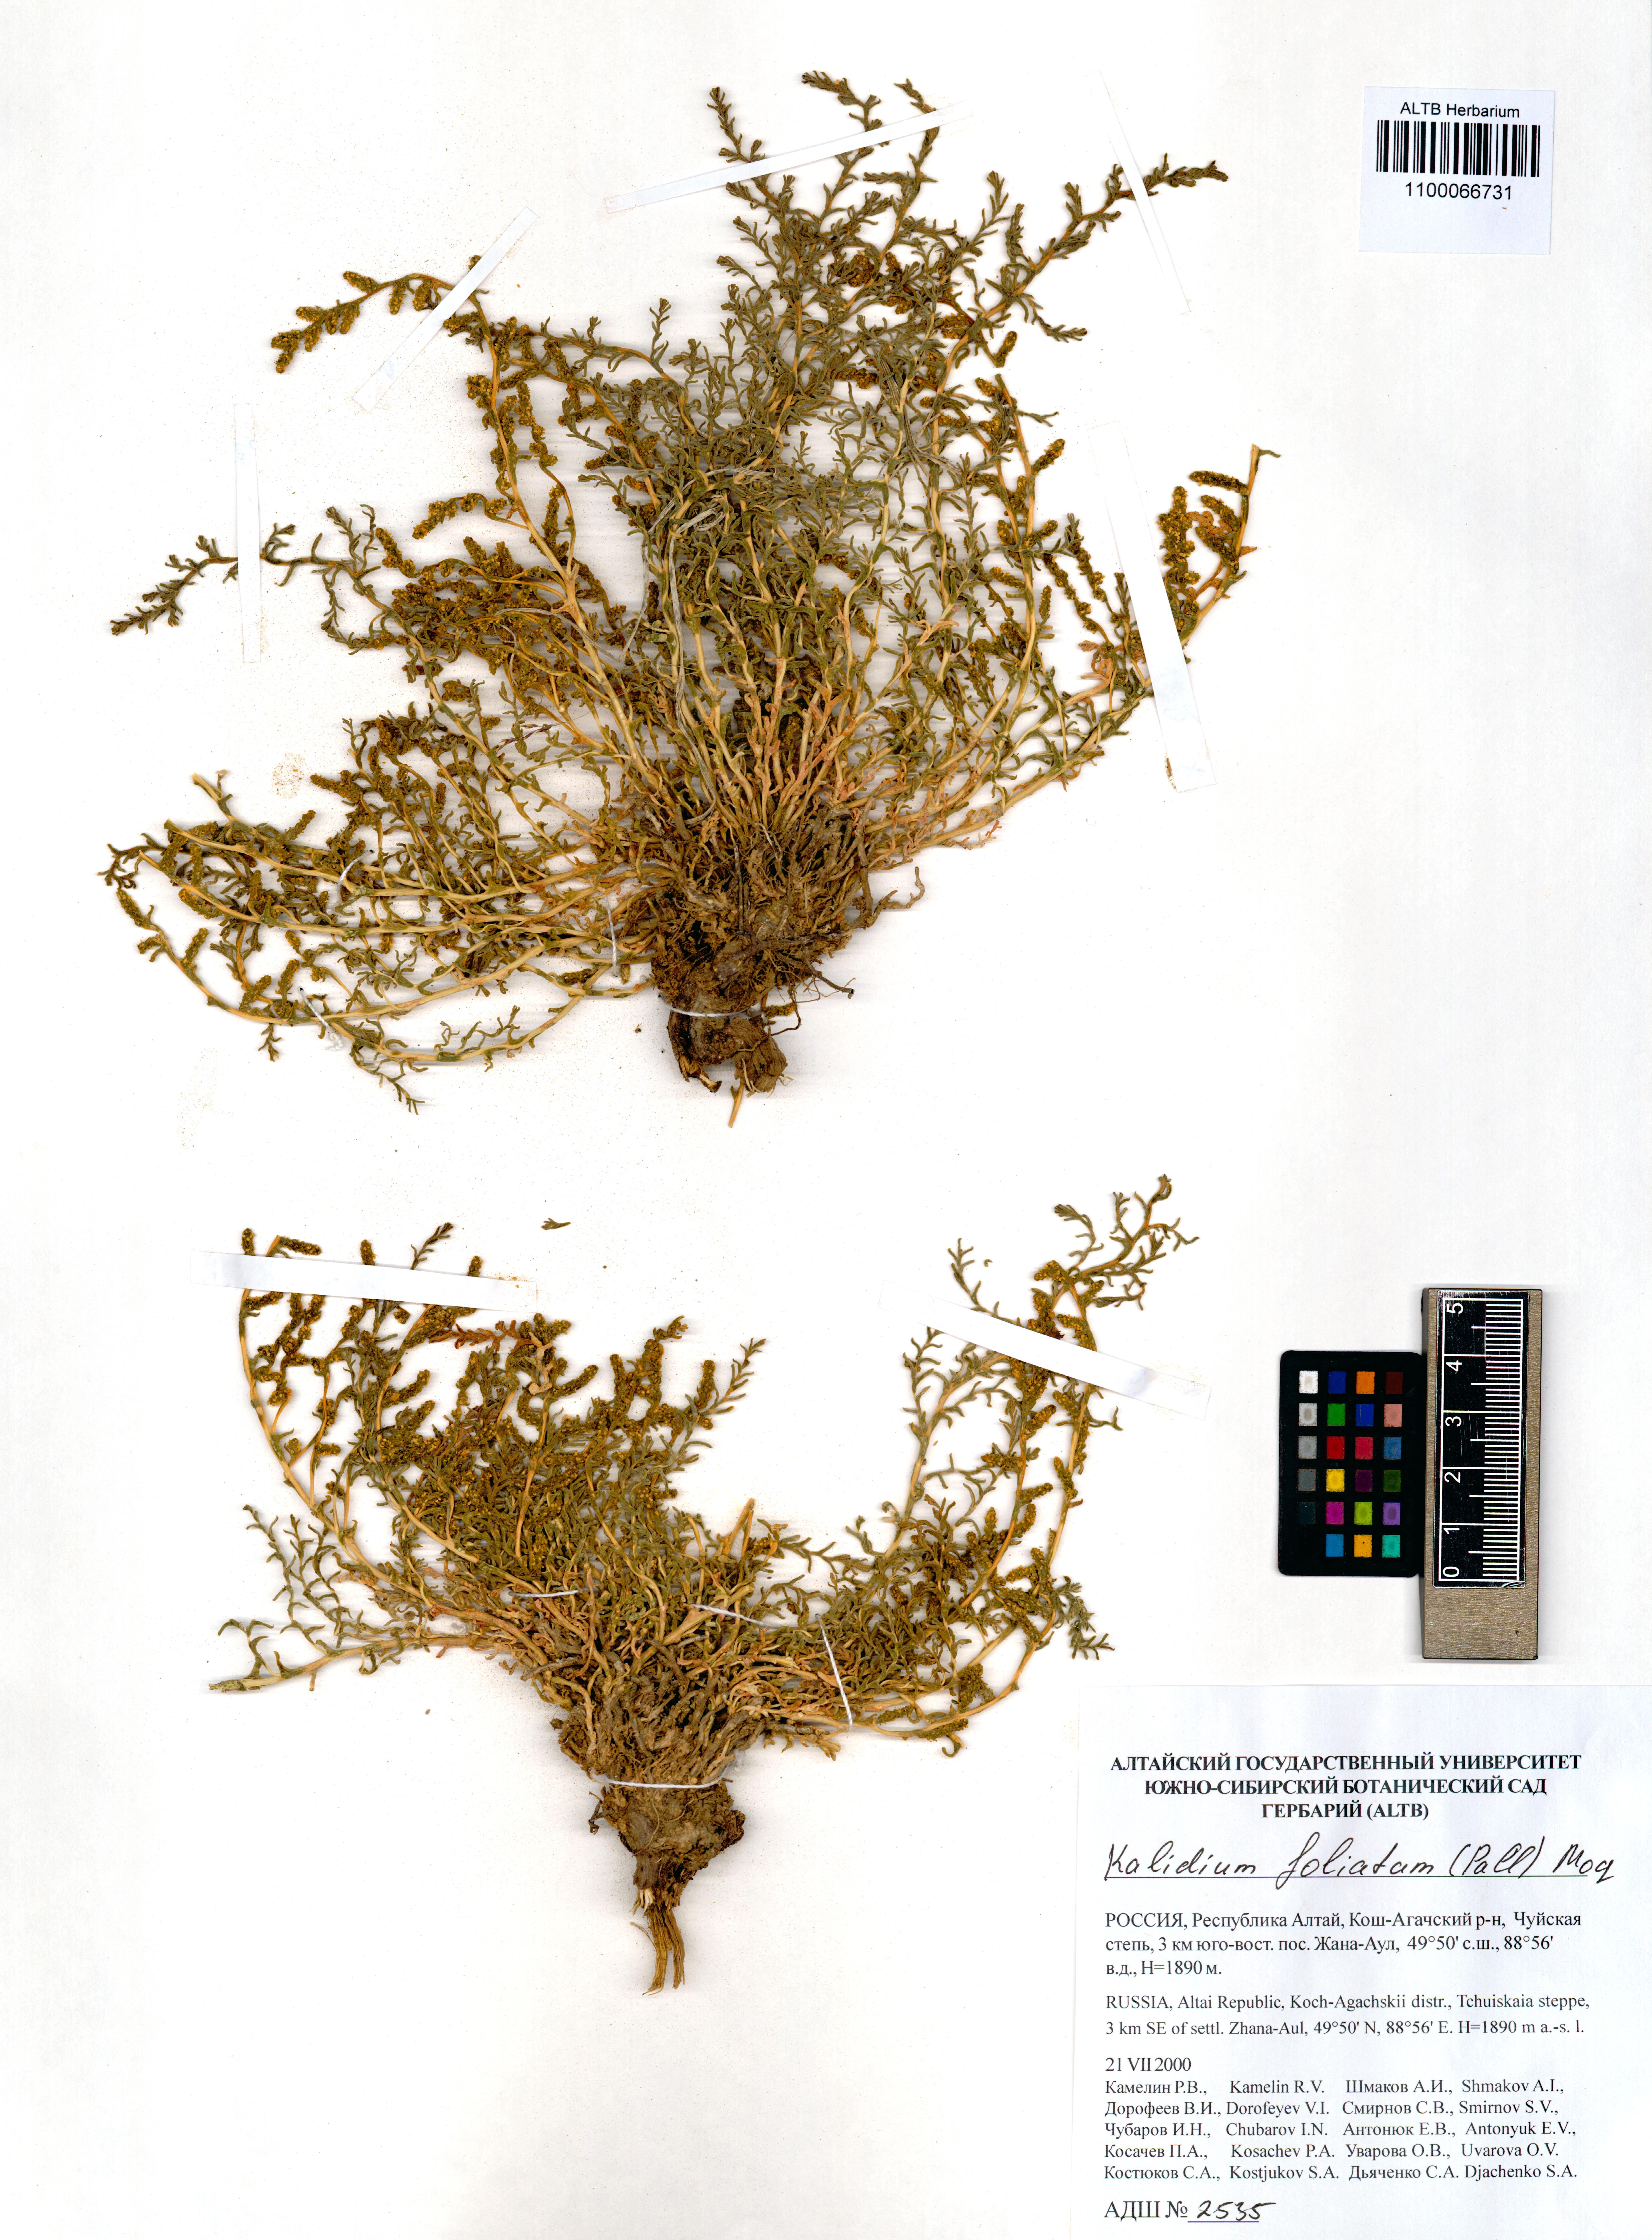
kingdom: Plantae
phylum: Tracheophyta
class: Magnoliopsida
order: Caryophyllales
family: Amaranthaceae
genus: Kalidium
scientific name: Kalidium foliatum
